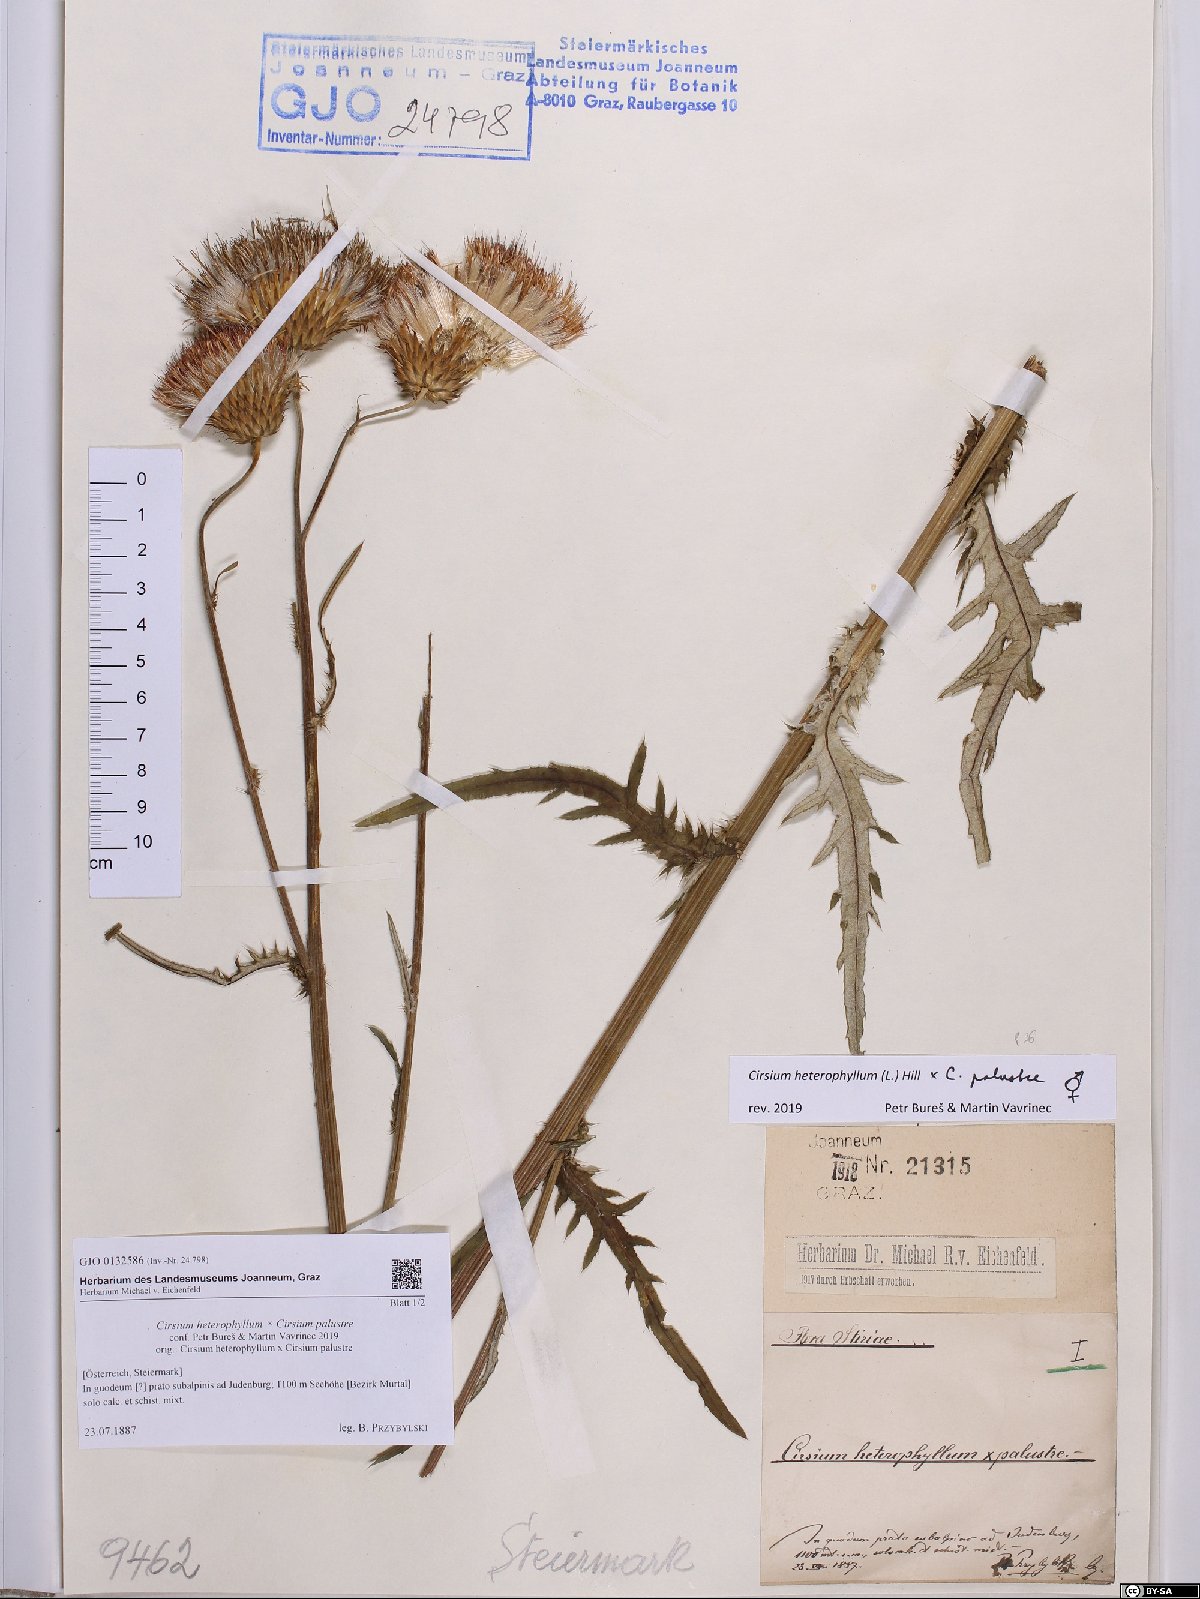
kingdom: Plantae
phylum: Tracheophyta
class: Magnoliopsida
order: Asterales
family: Asteraceae
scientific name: Asteraceae
